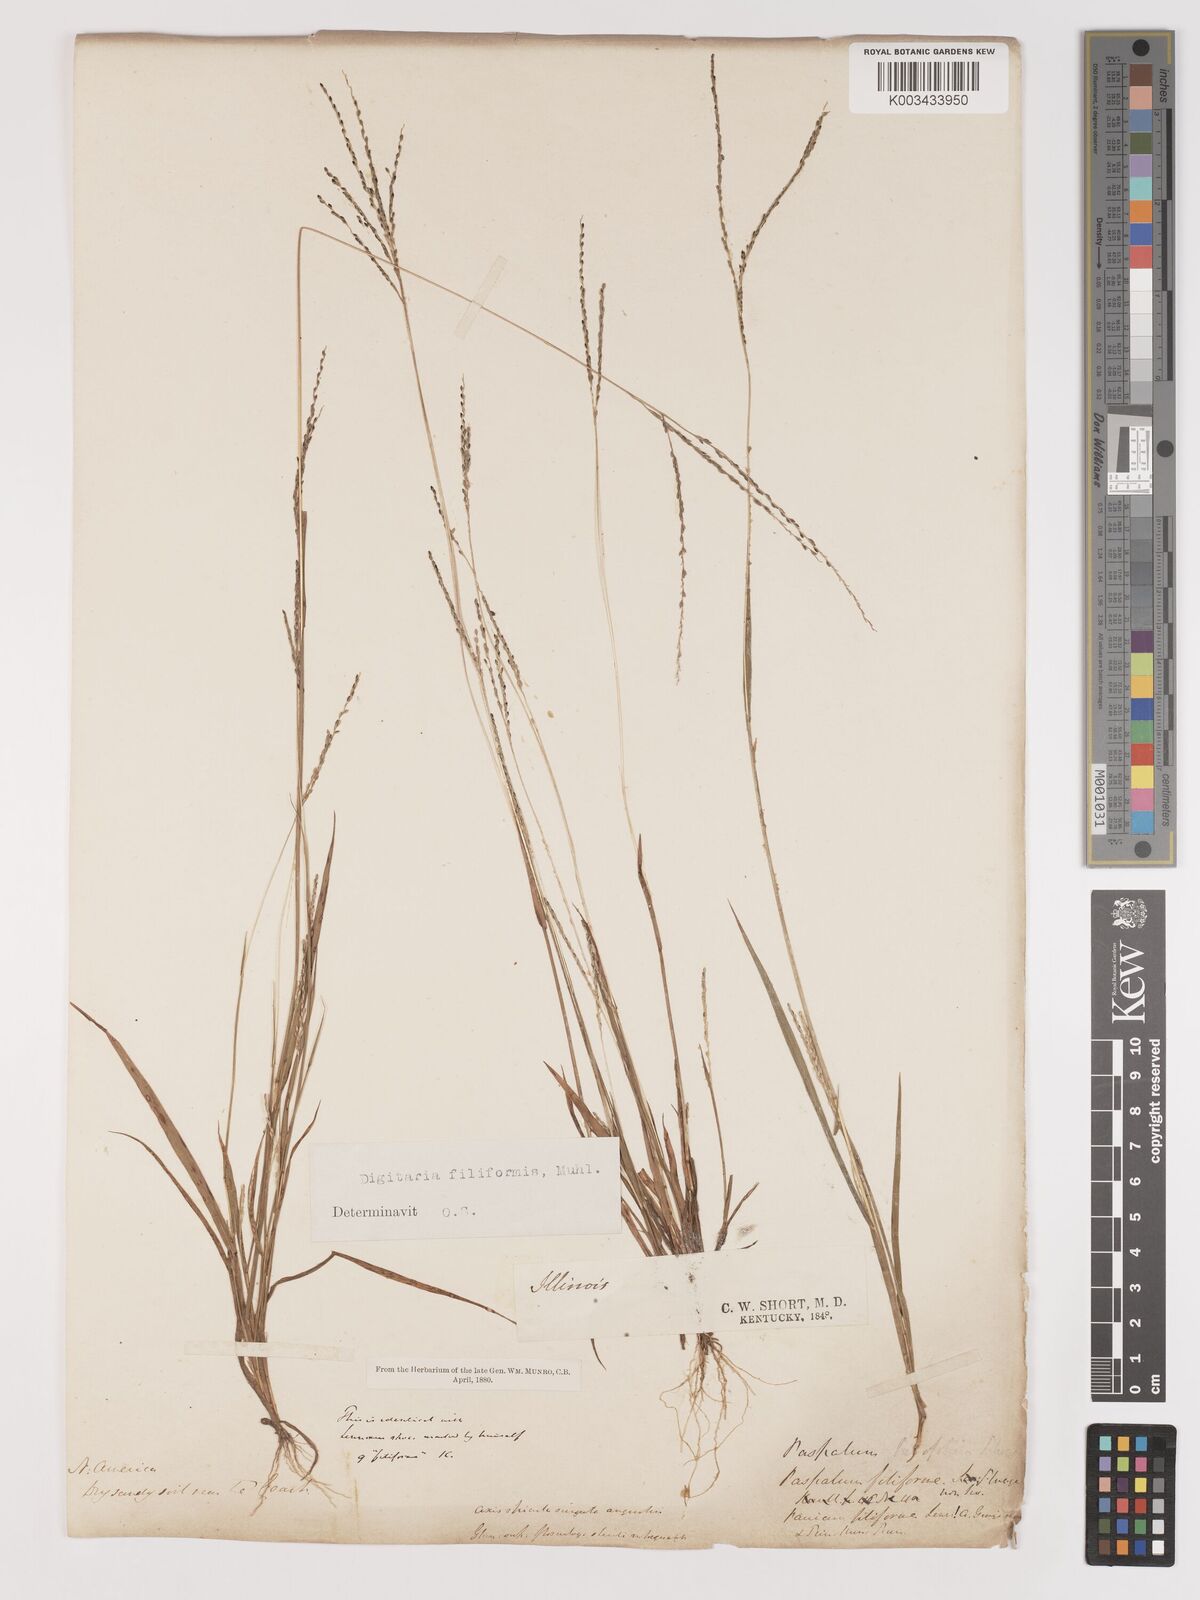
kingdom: Plantae
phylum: Tracheophyta
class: Liliopsida
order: Poales
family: Poaceae
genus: Digitaria
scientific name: Digitaria filiformis
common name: Slender crabgrass
